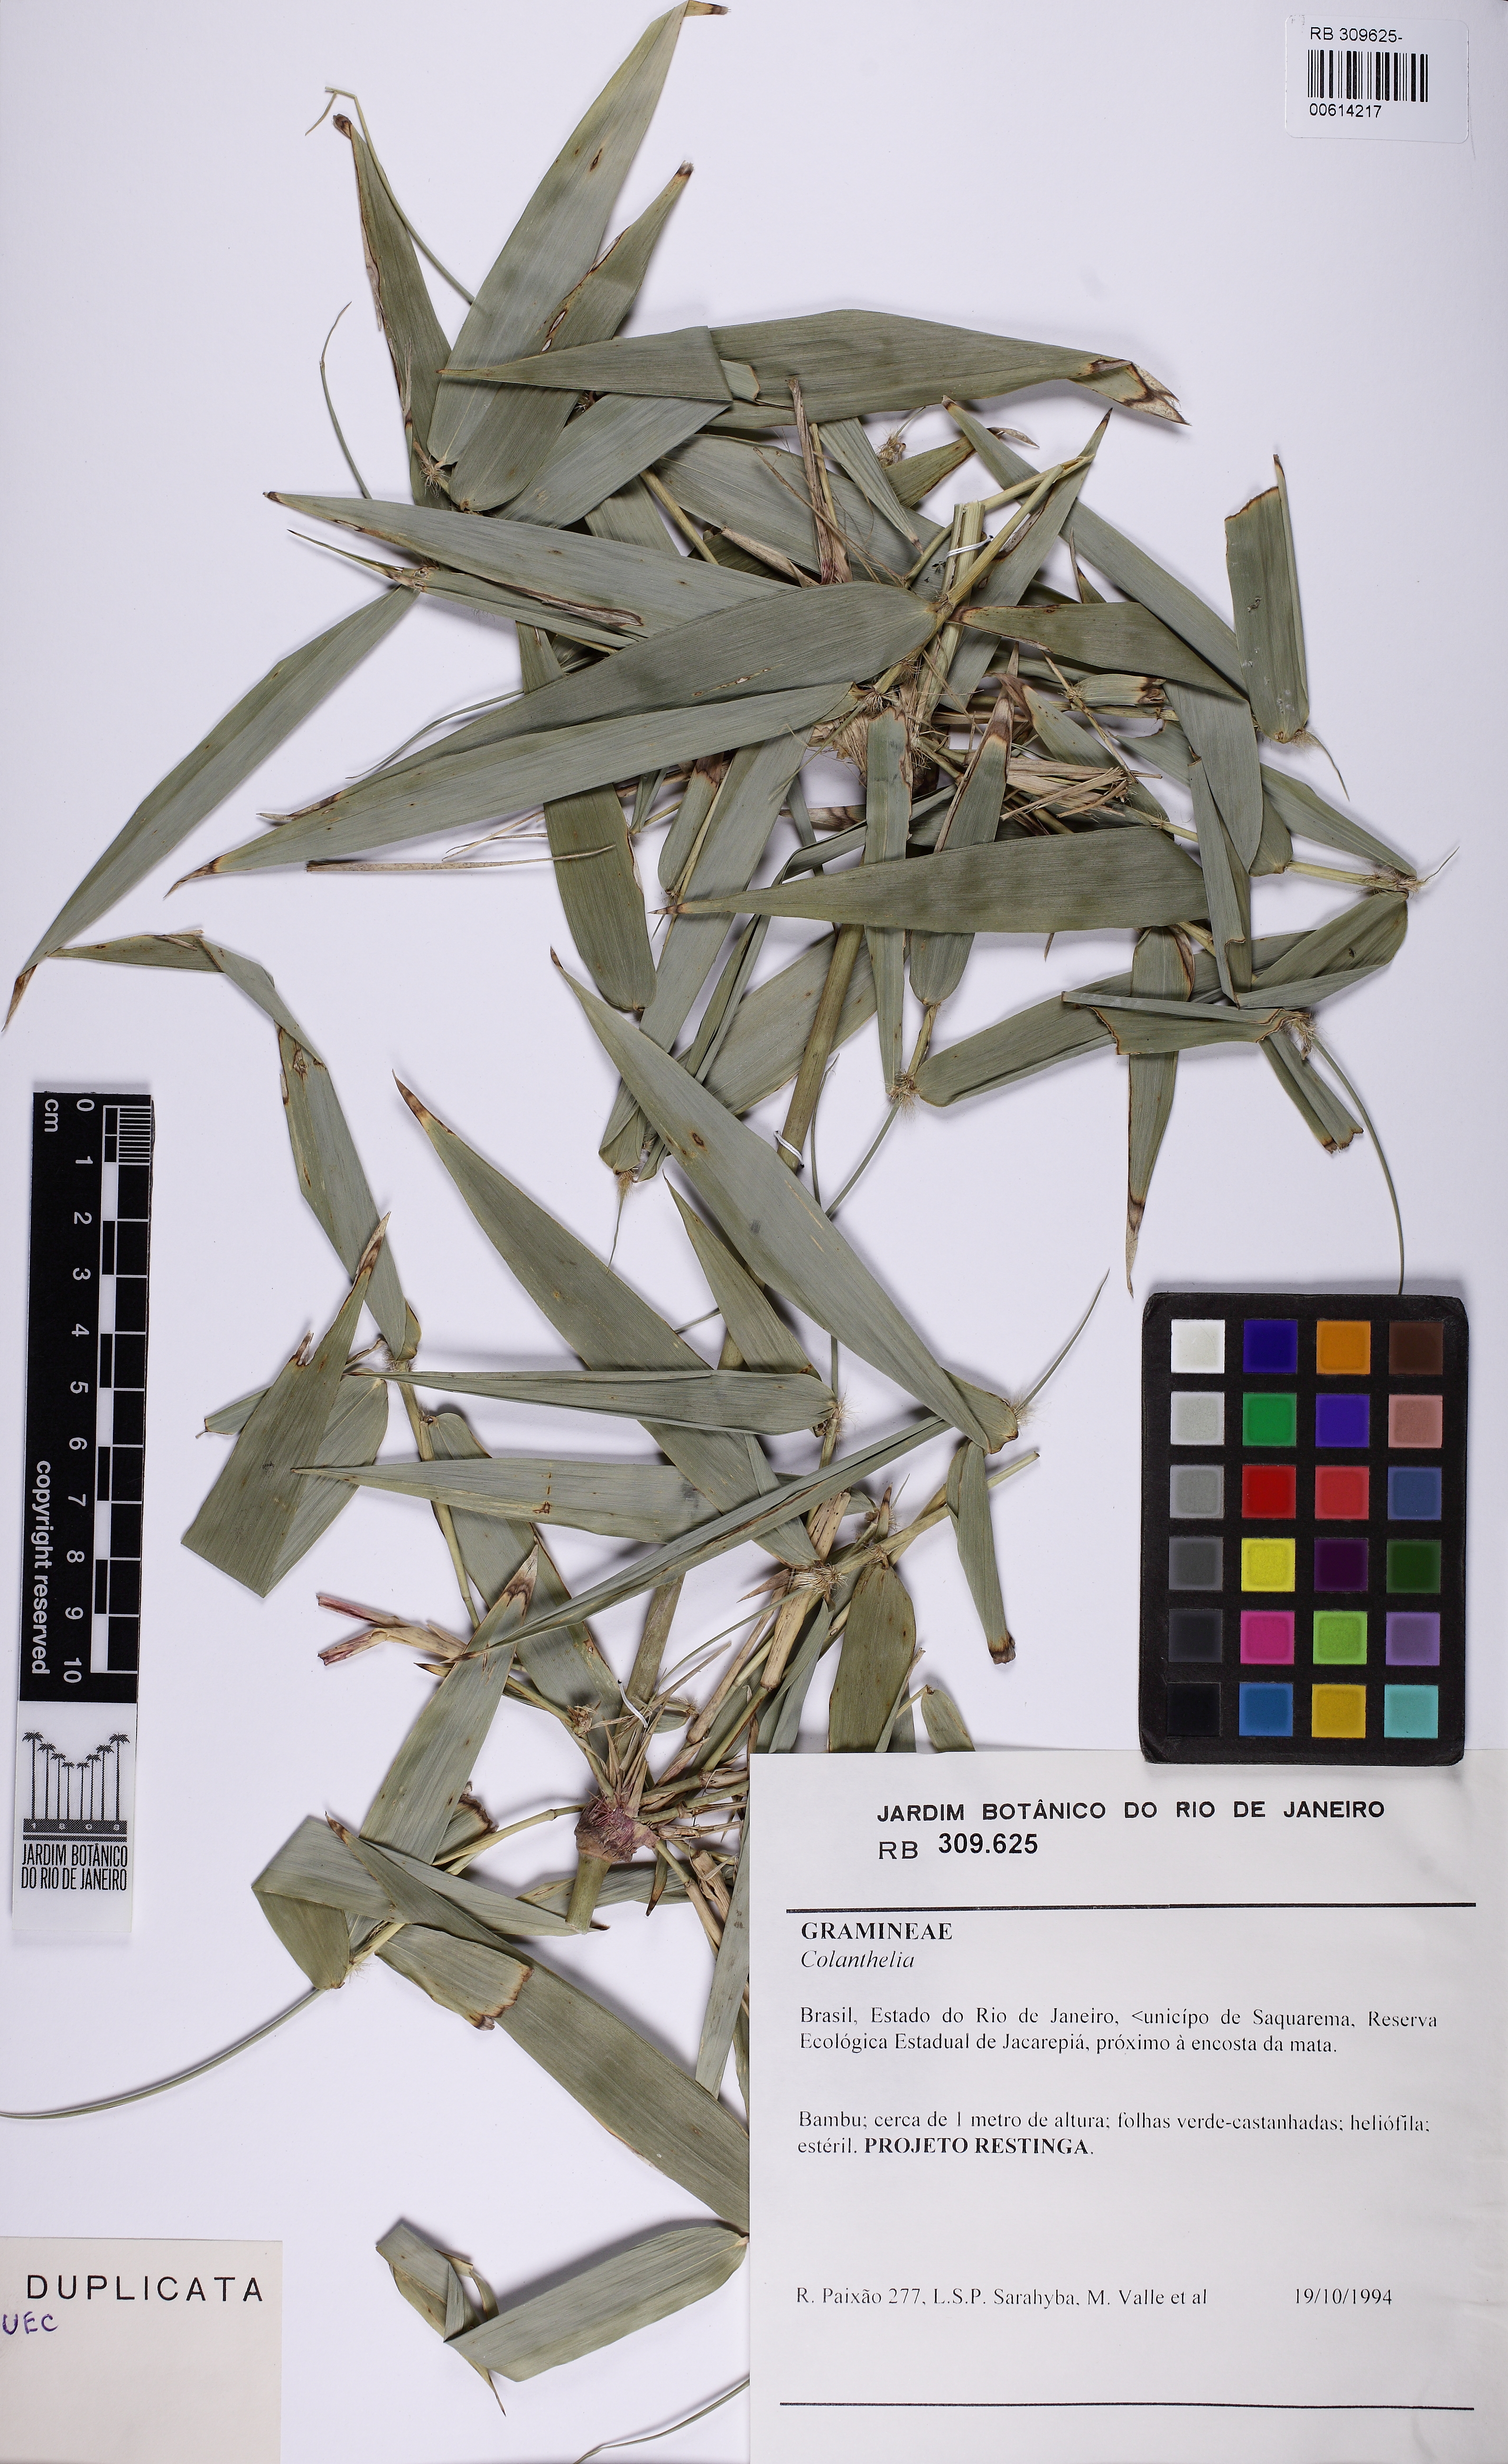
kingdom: Plantae
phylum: Tracheophyta
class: Liliopsida
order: Poales
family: Poaceae
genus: Colanthelia
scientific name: Colanthelia
